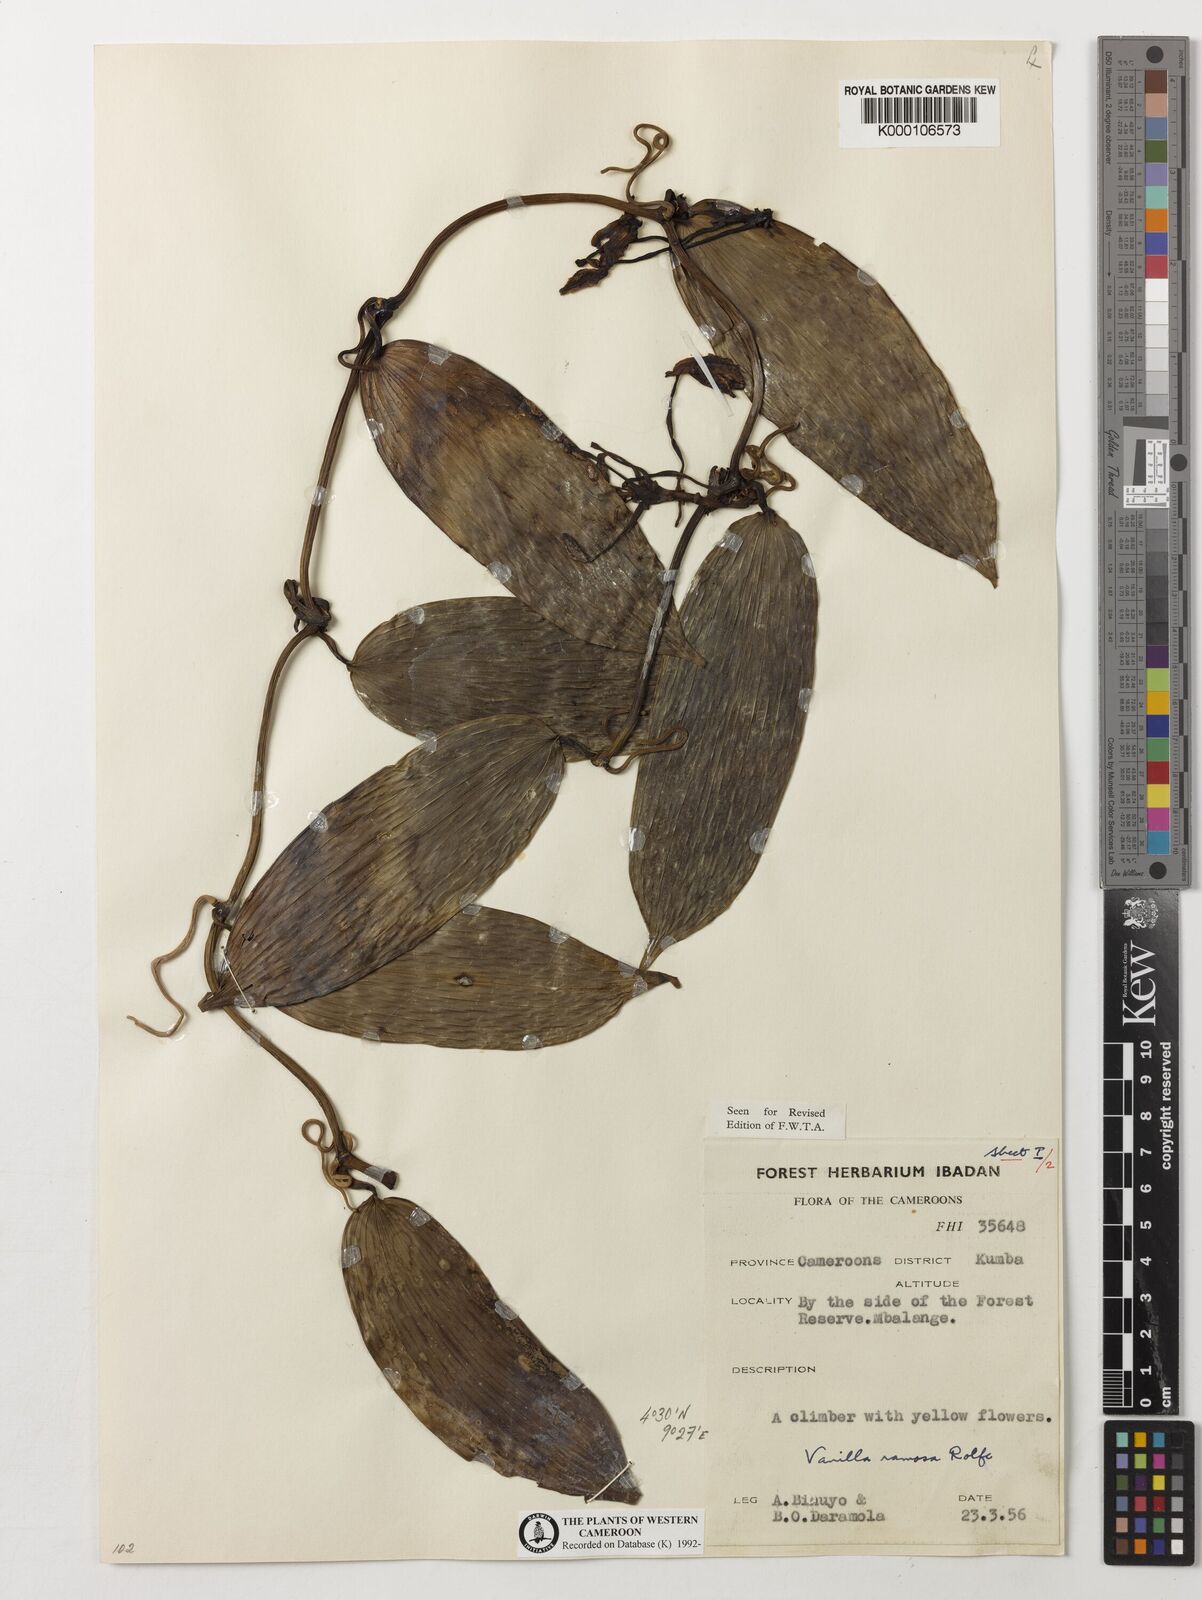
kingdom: Plantae
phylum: Tracheophyta
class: Liliopsida
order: Asparagales
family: Orchidaceae
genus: Vanilla
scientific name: Vanilla ramosa
